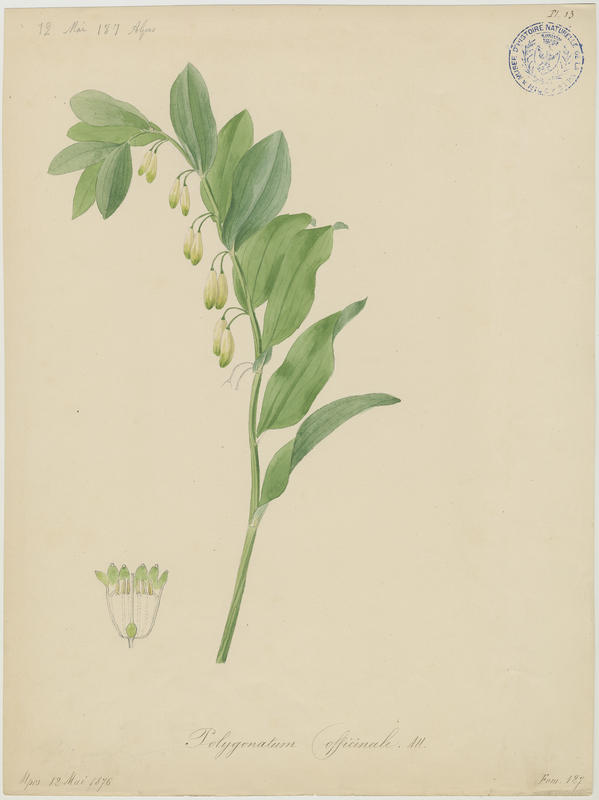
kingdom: Plantae
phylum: Tracheophyta
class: Liliopsida
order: Asparagales
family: Asparagaceae
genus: Polygonatum
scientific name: Polygonatum odoratum
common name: Angular solomon's-seal
